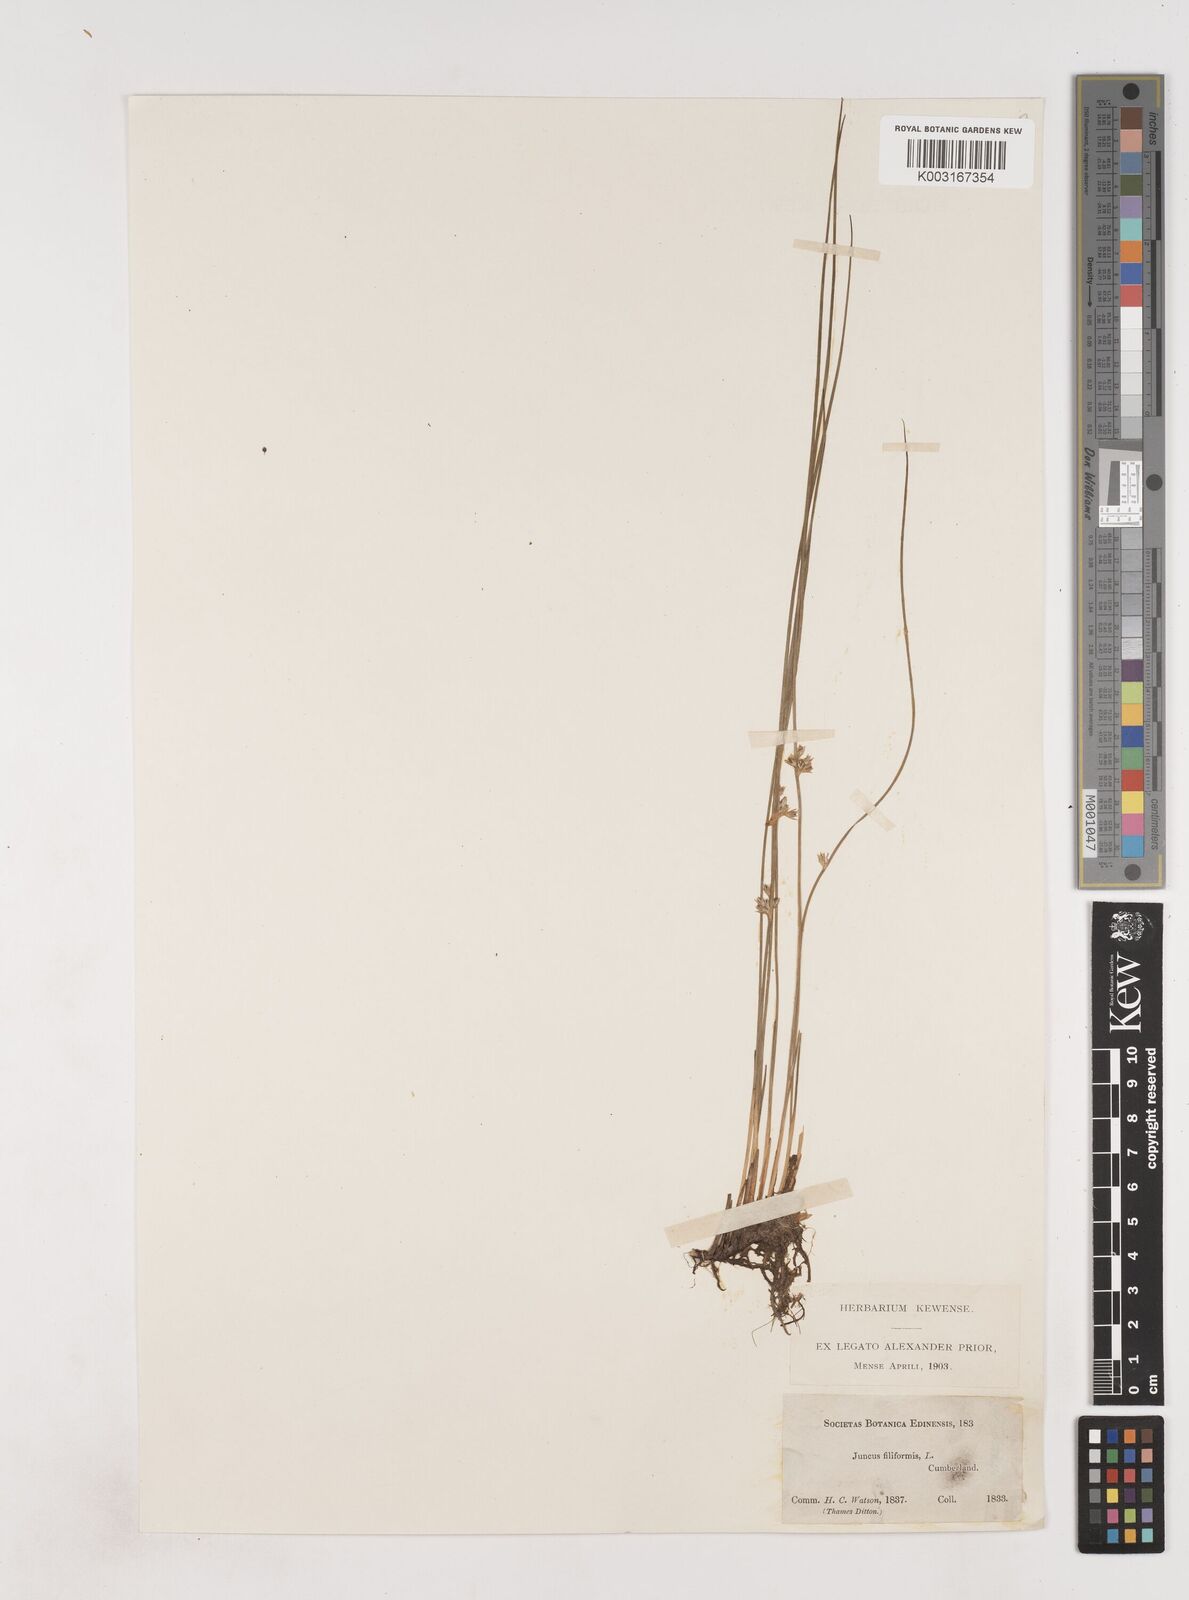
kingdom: Plantae
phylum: Tracheophyta
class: Liliopsida
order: Poales
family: Juncaceae
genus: Juncus
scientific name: Juncus filiformis
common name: Thread rush
